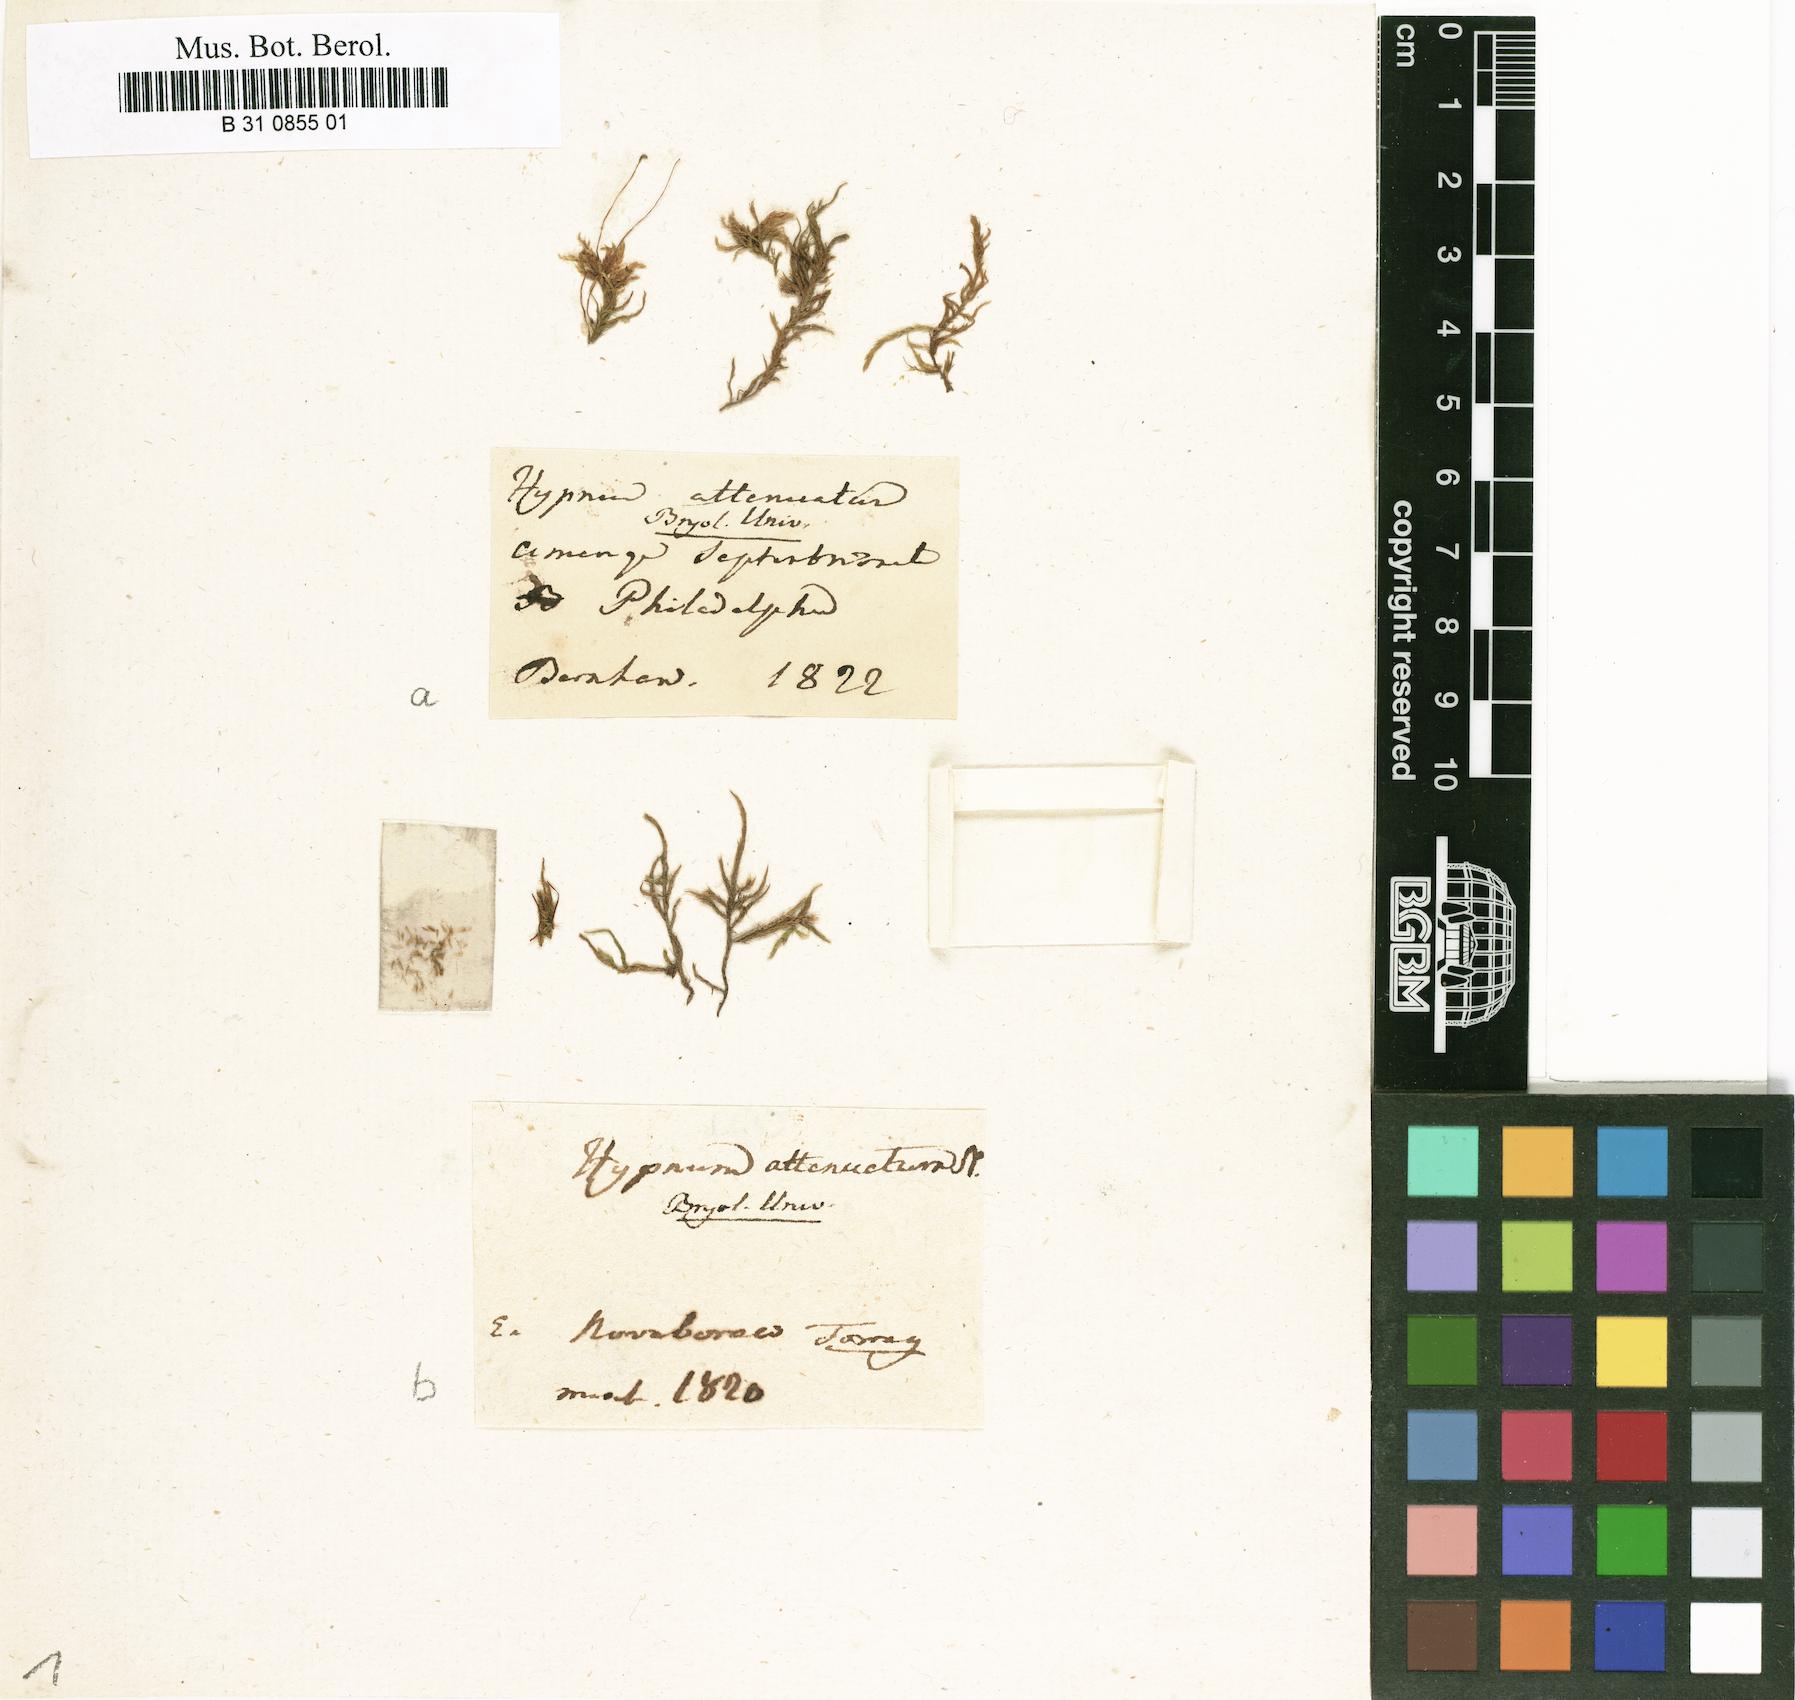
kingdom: Plantae
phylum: Bryophyta
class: Bryopsida
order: Hypnales
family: Pseudoleskeaceae
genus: Lescuraea
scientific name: Lescuraea incurvata
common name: Brown mountain leskea
